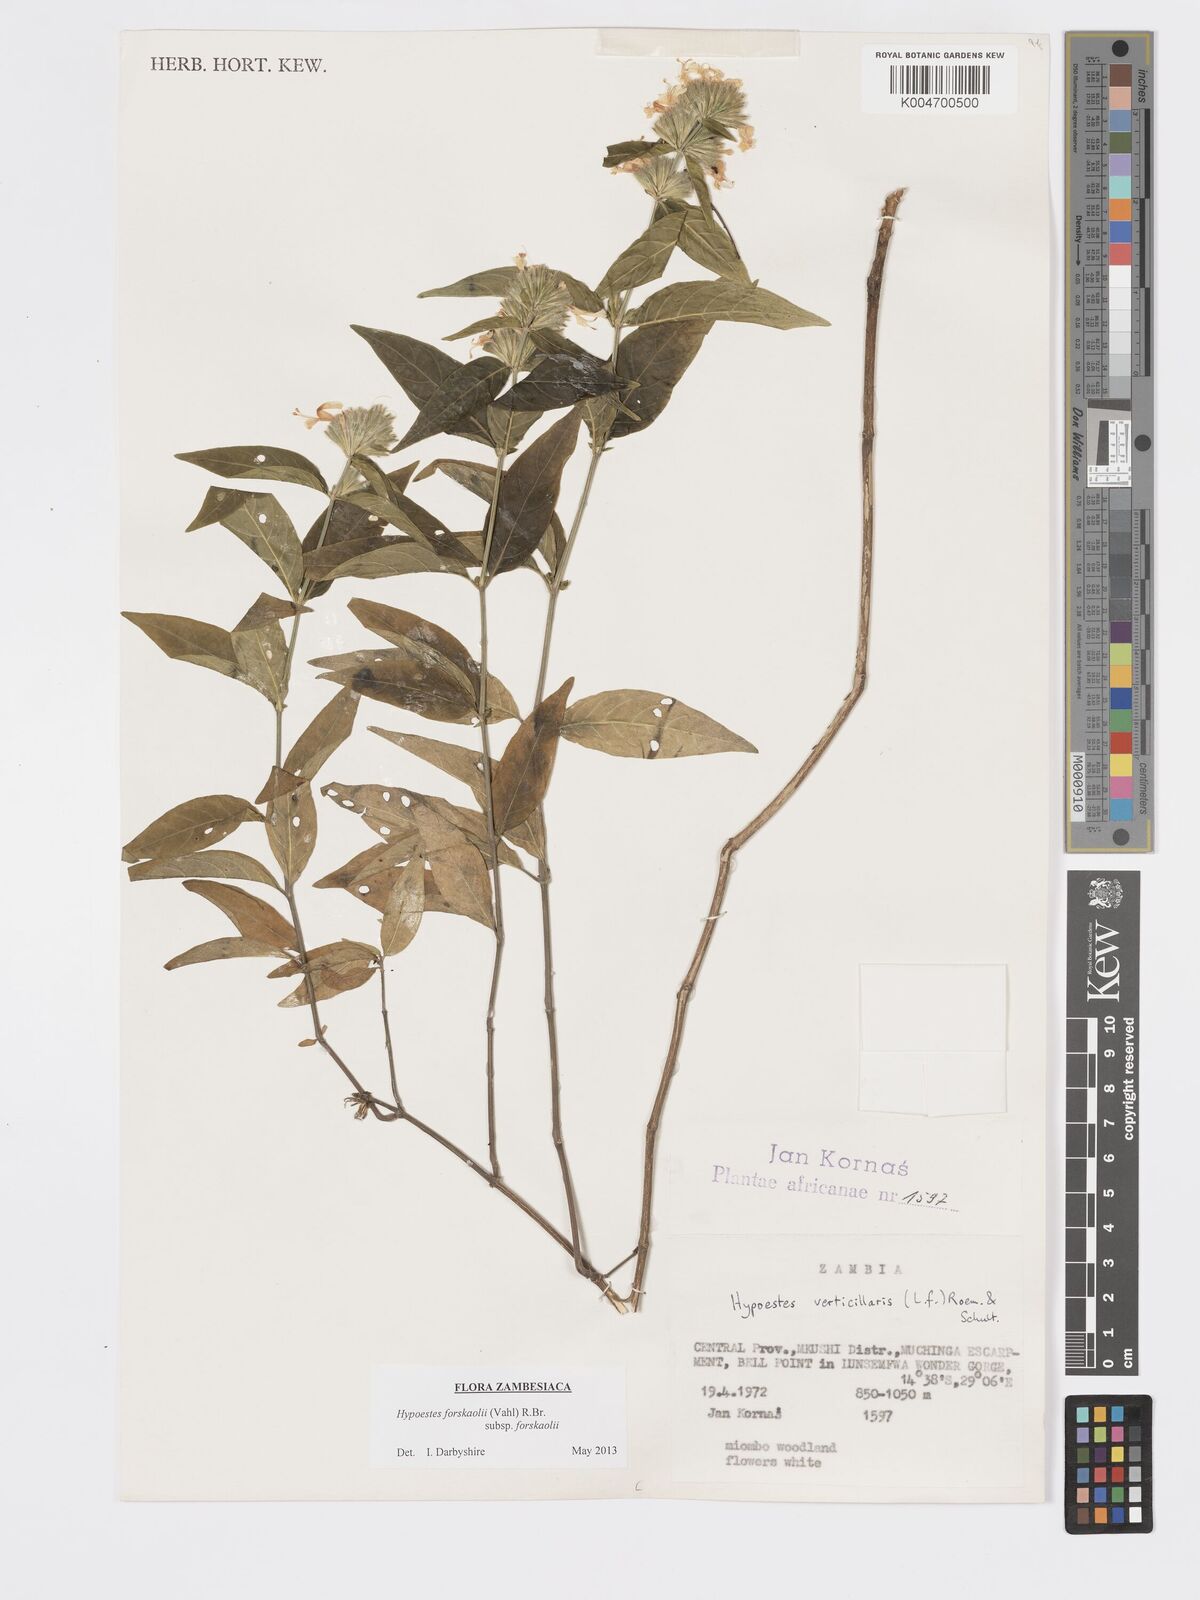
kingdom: Plantae
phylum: Tracheophyta
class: Magnoliopsida
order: Lamiales
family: Acanthaceae
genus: Hypoestes
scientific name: Hypoestes forskaolii
